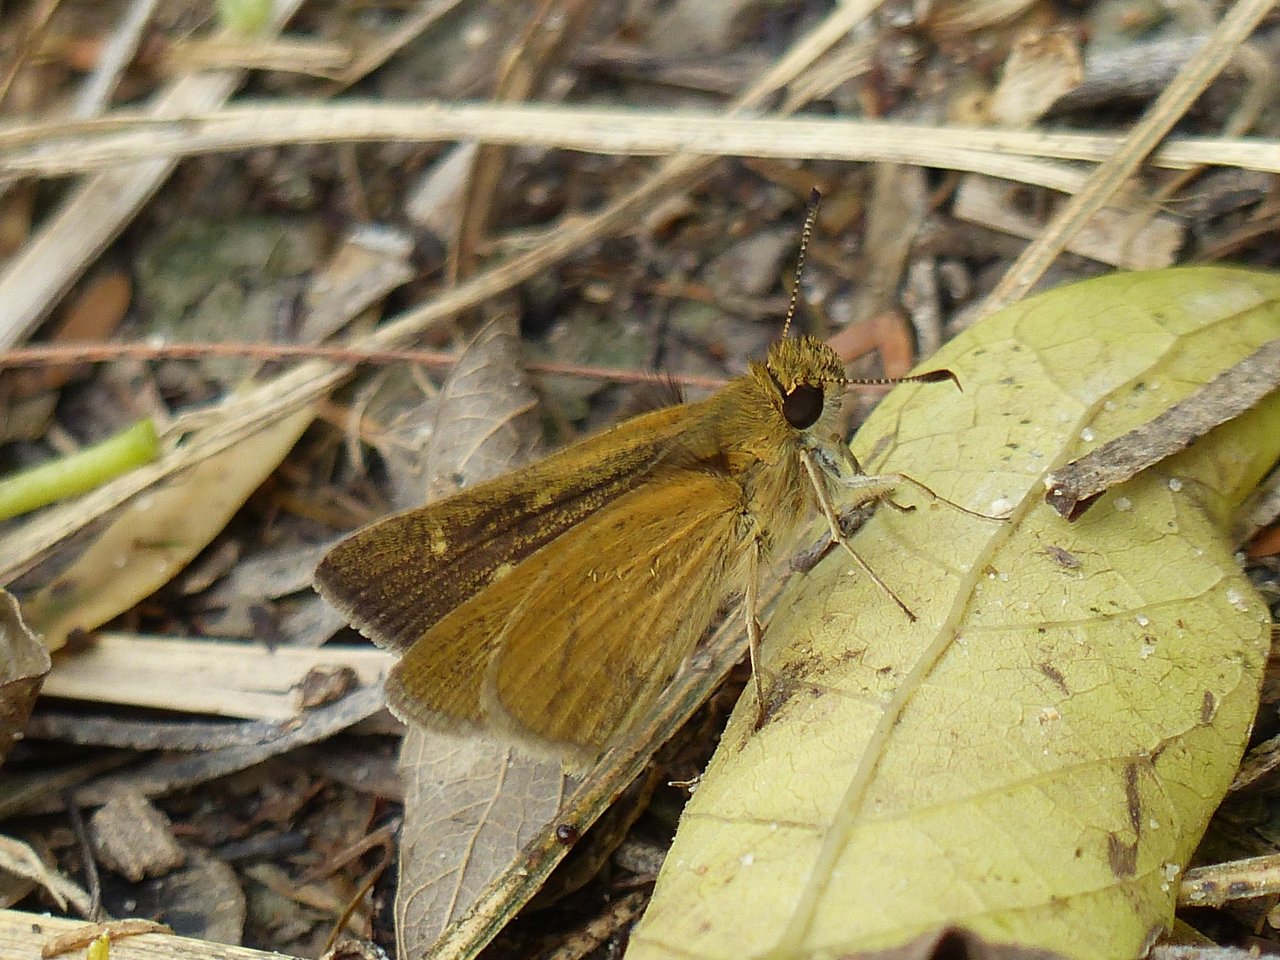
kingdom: Animalia
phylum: Arthropoda
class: Insecta
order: Lepidoptera
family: Hesperiidae
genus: Nastra
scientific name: Nastra julia
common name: Julia's Skipper
